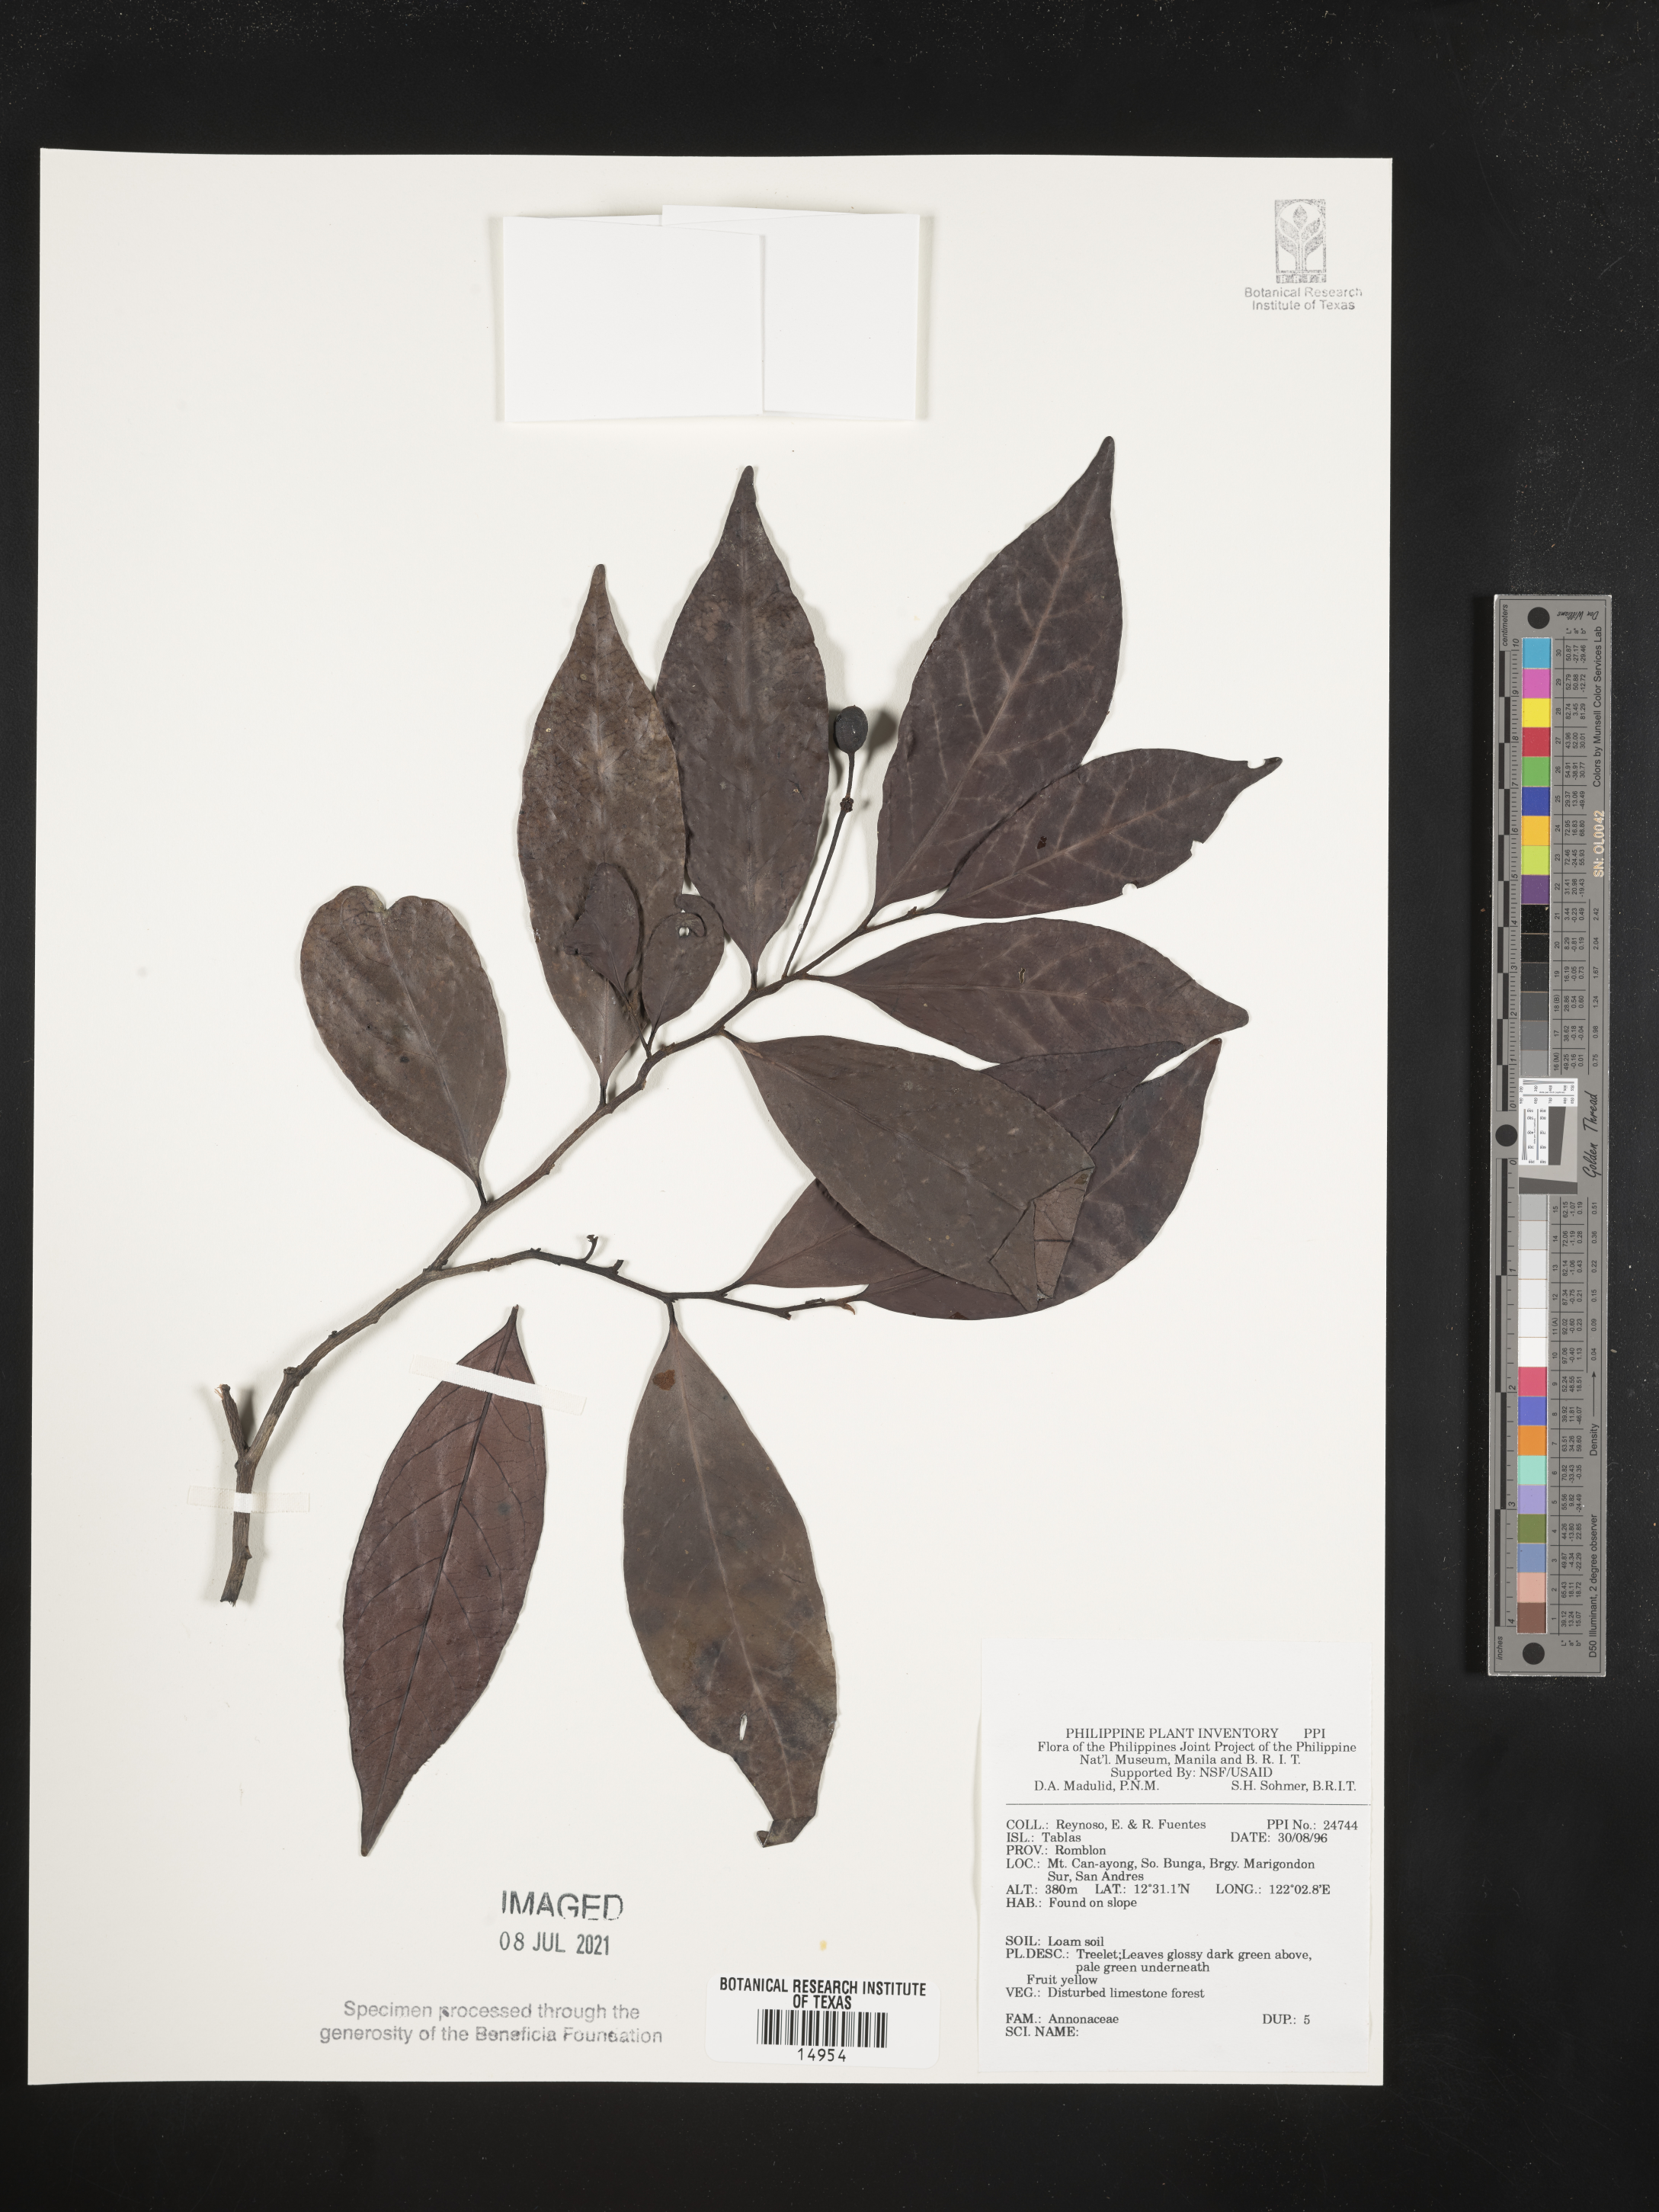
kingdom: Plantae
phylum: Tracheophyta
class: Magnoliopsida
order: Magnoliales
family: Annonaceae
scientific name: Annonaceae
